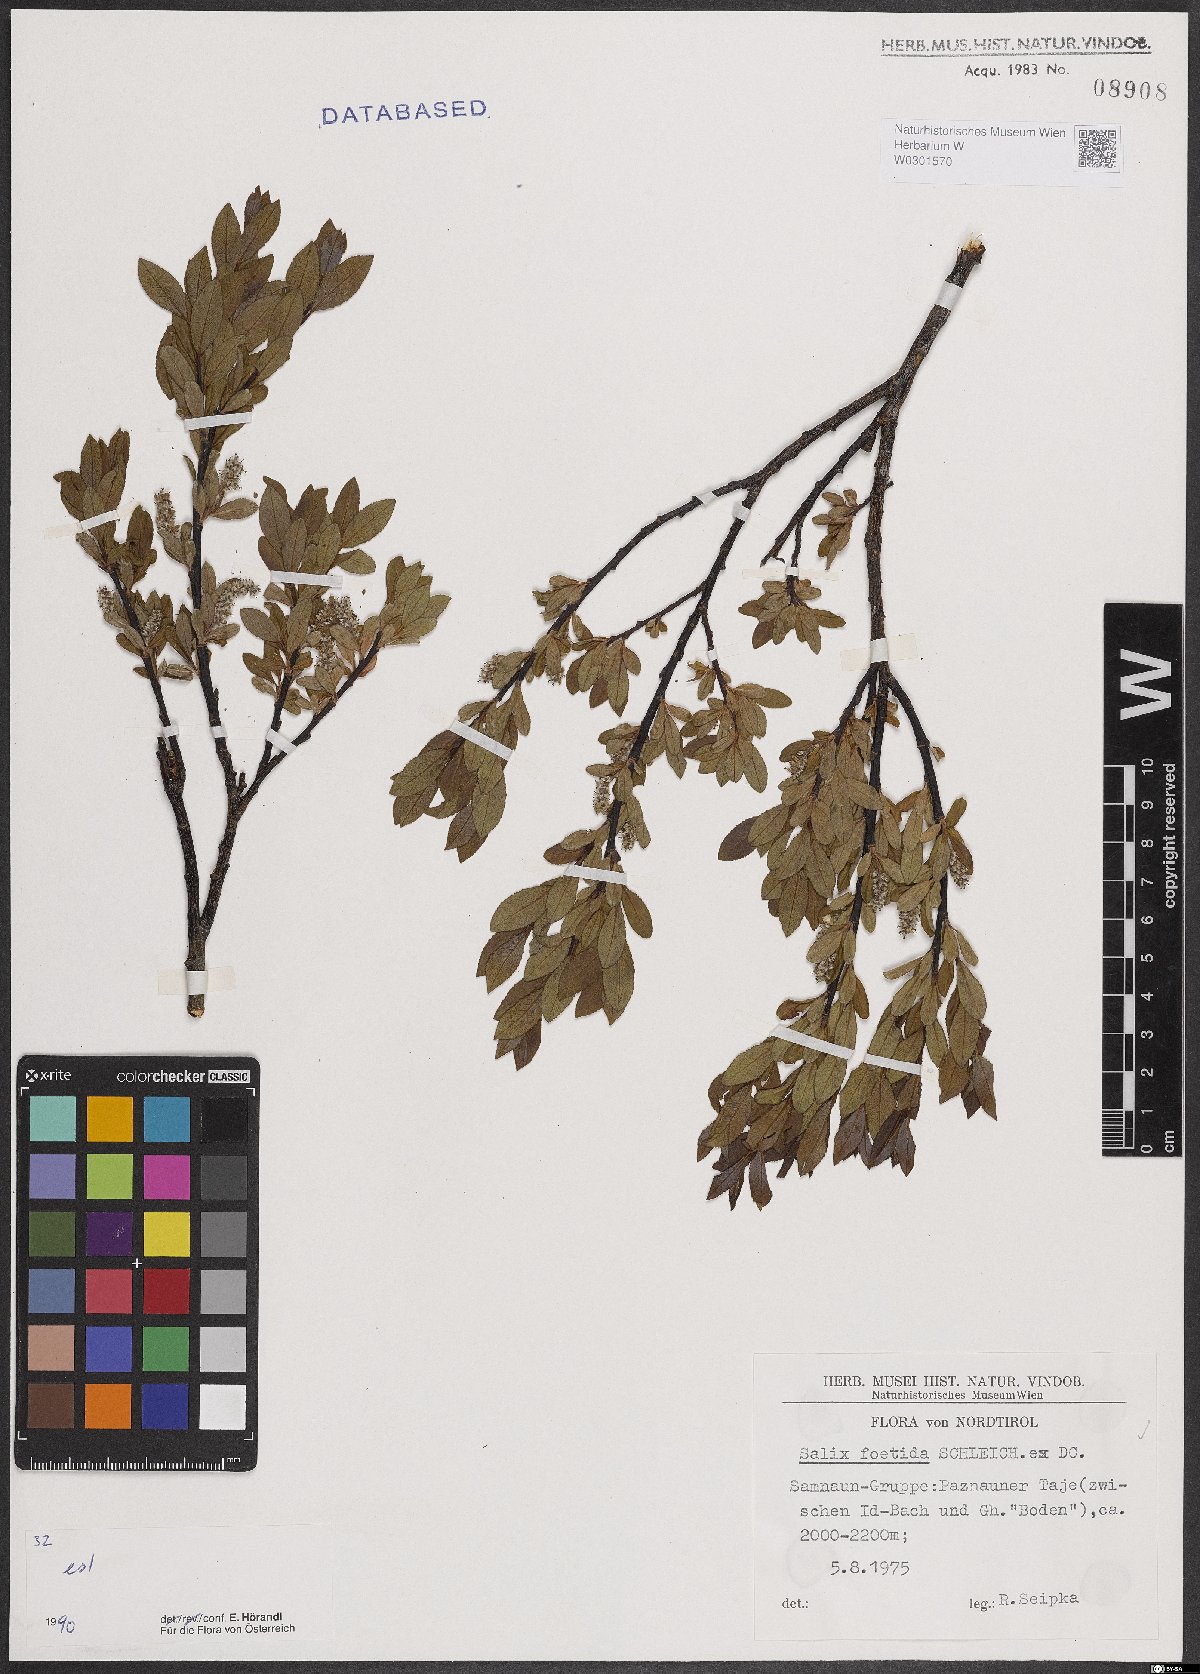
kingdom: Plantae
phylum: Tracheophyta
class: Magnoliopsida
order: Malpighiales
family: Salicaceae
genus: Salix
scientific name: Salix foetida
